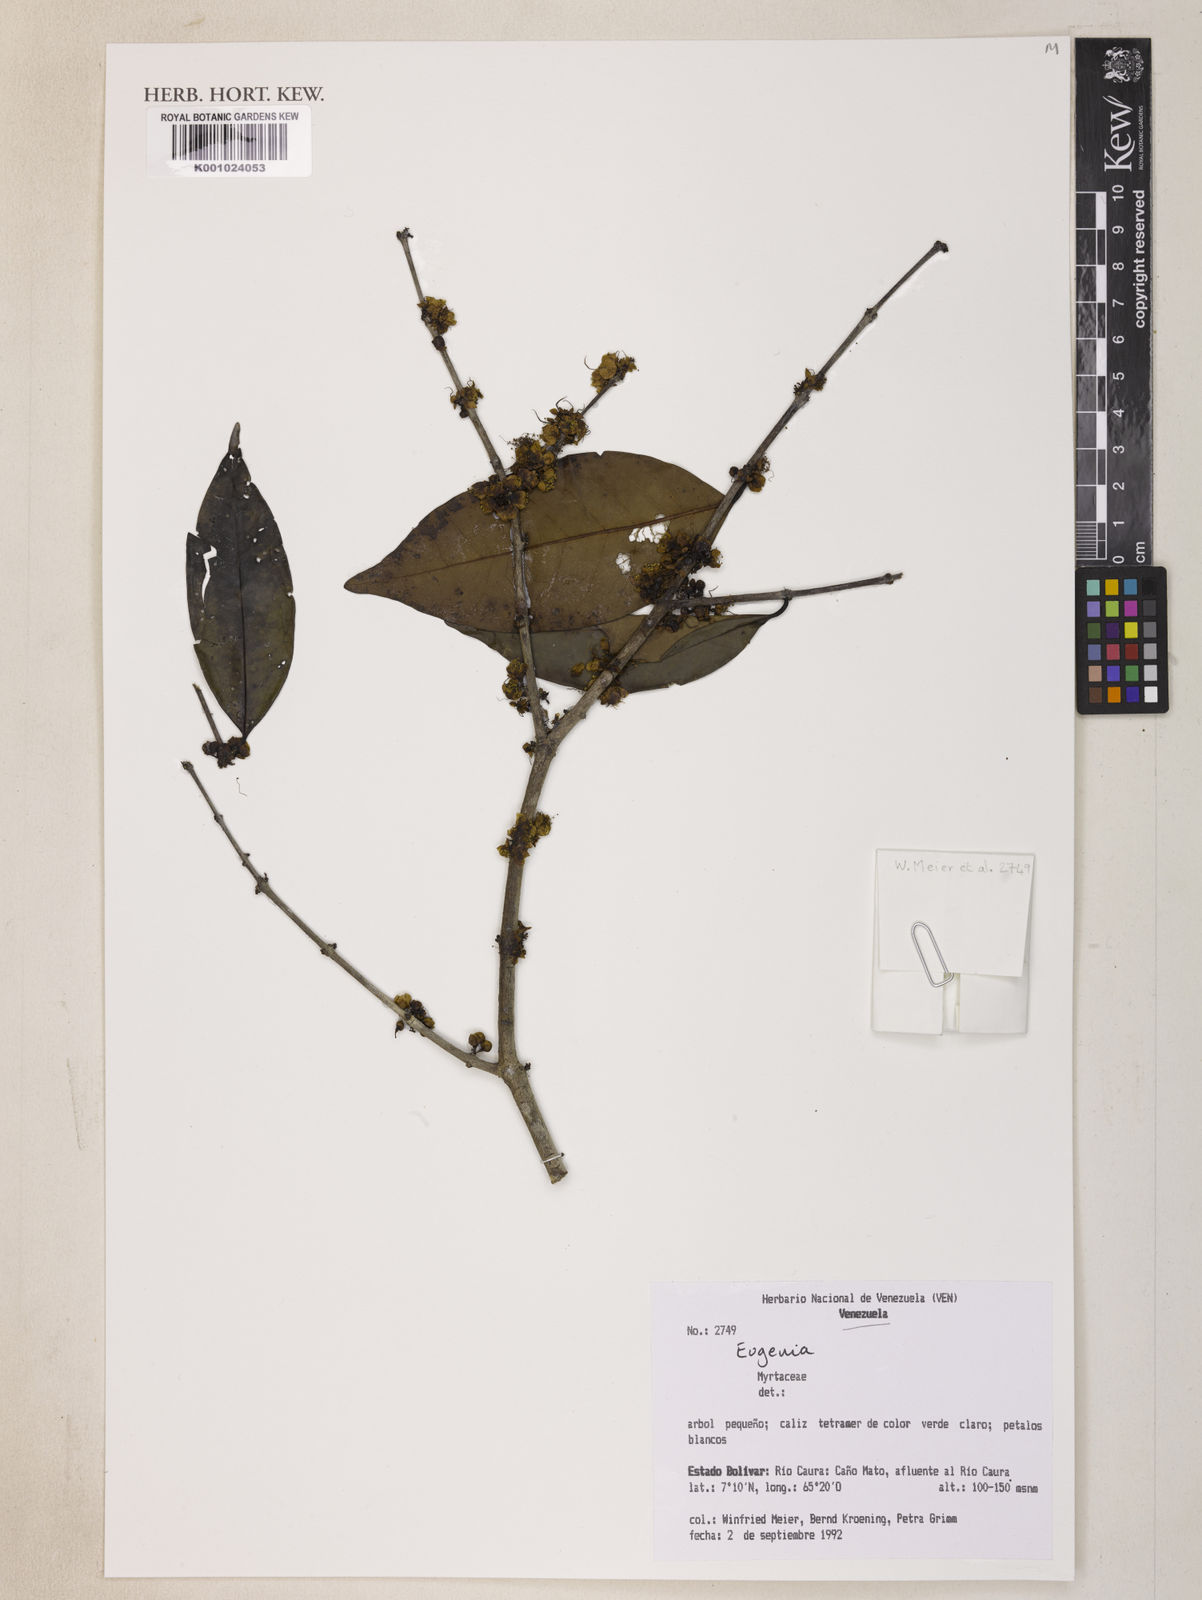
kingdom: Plantae
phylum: Tracheophyta
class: Magnoliopsida
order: Myrtales
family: Myrtaceae
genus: Eugenia
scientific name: Eugenia
